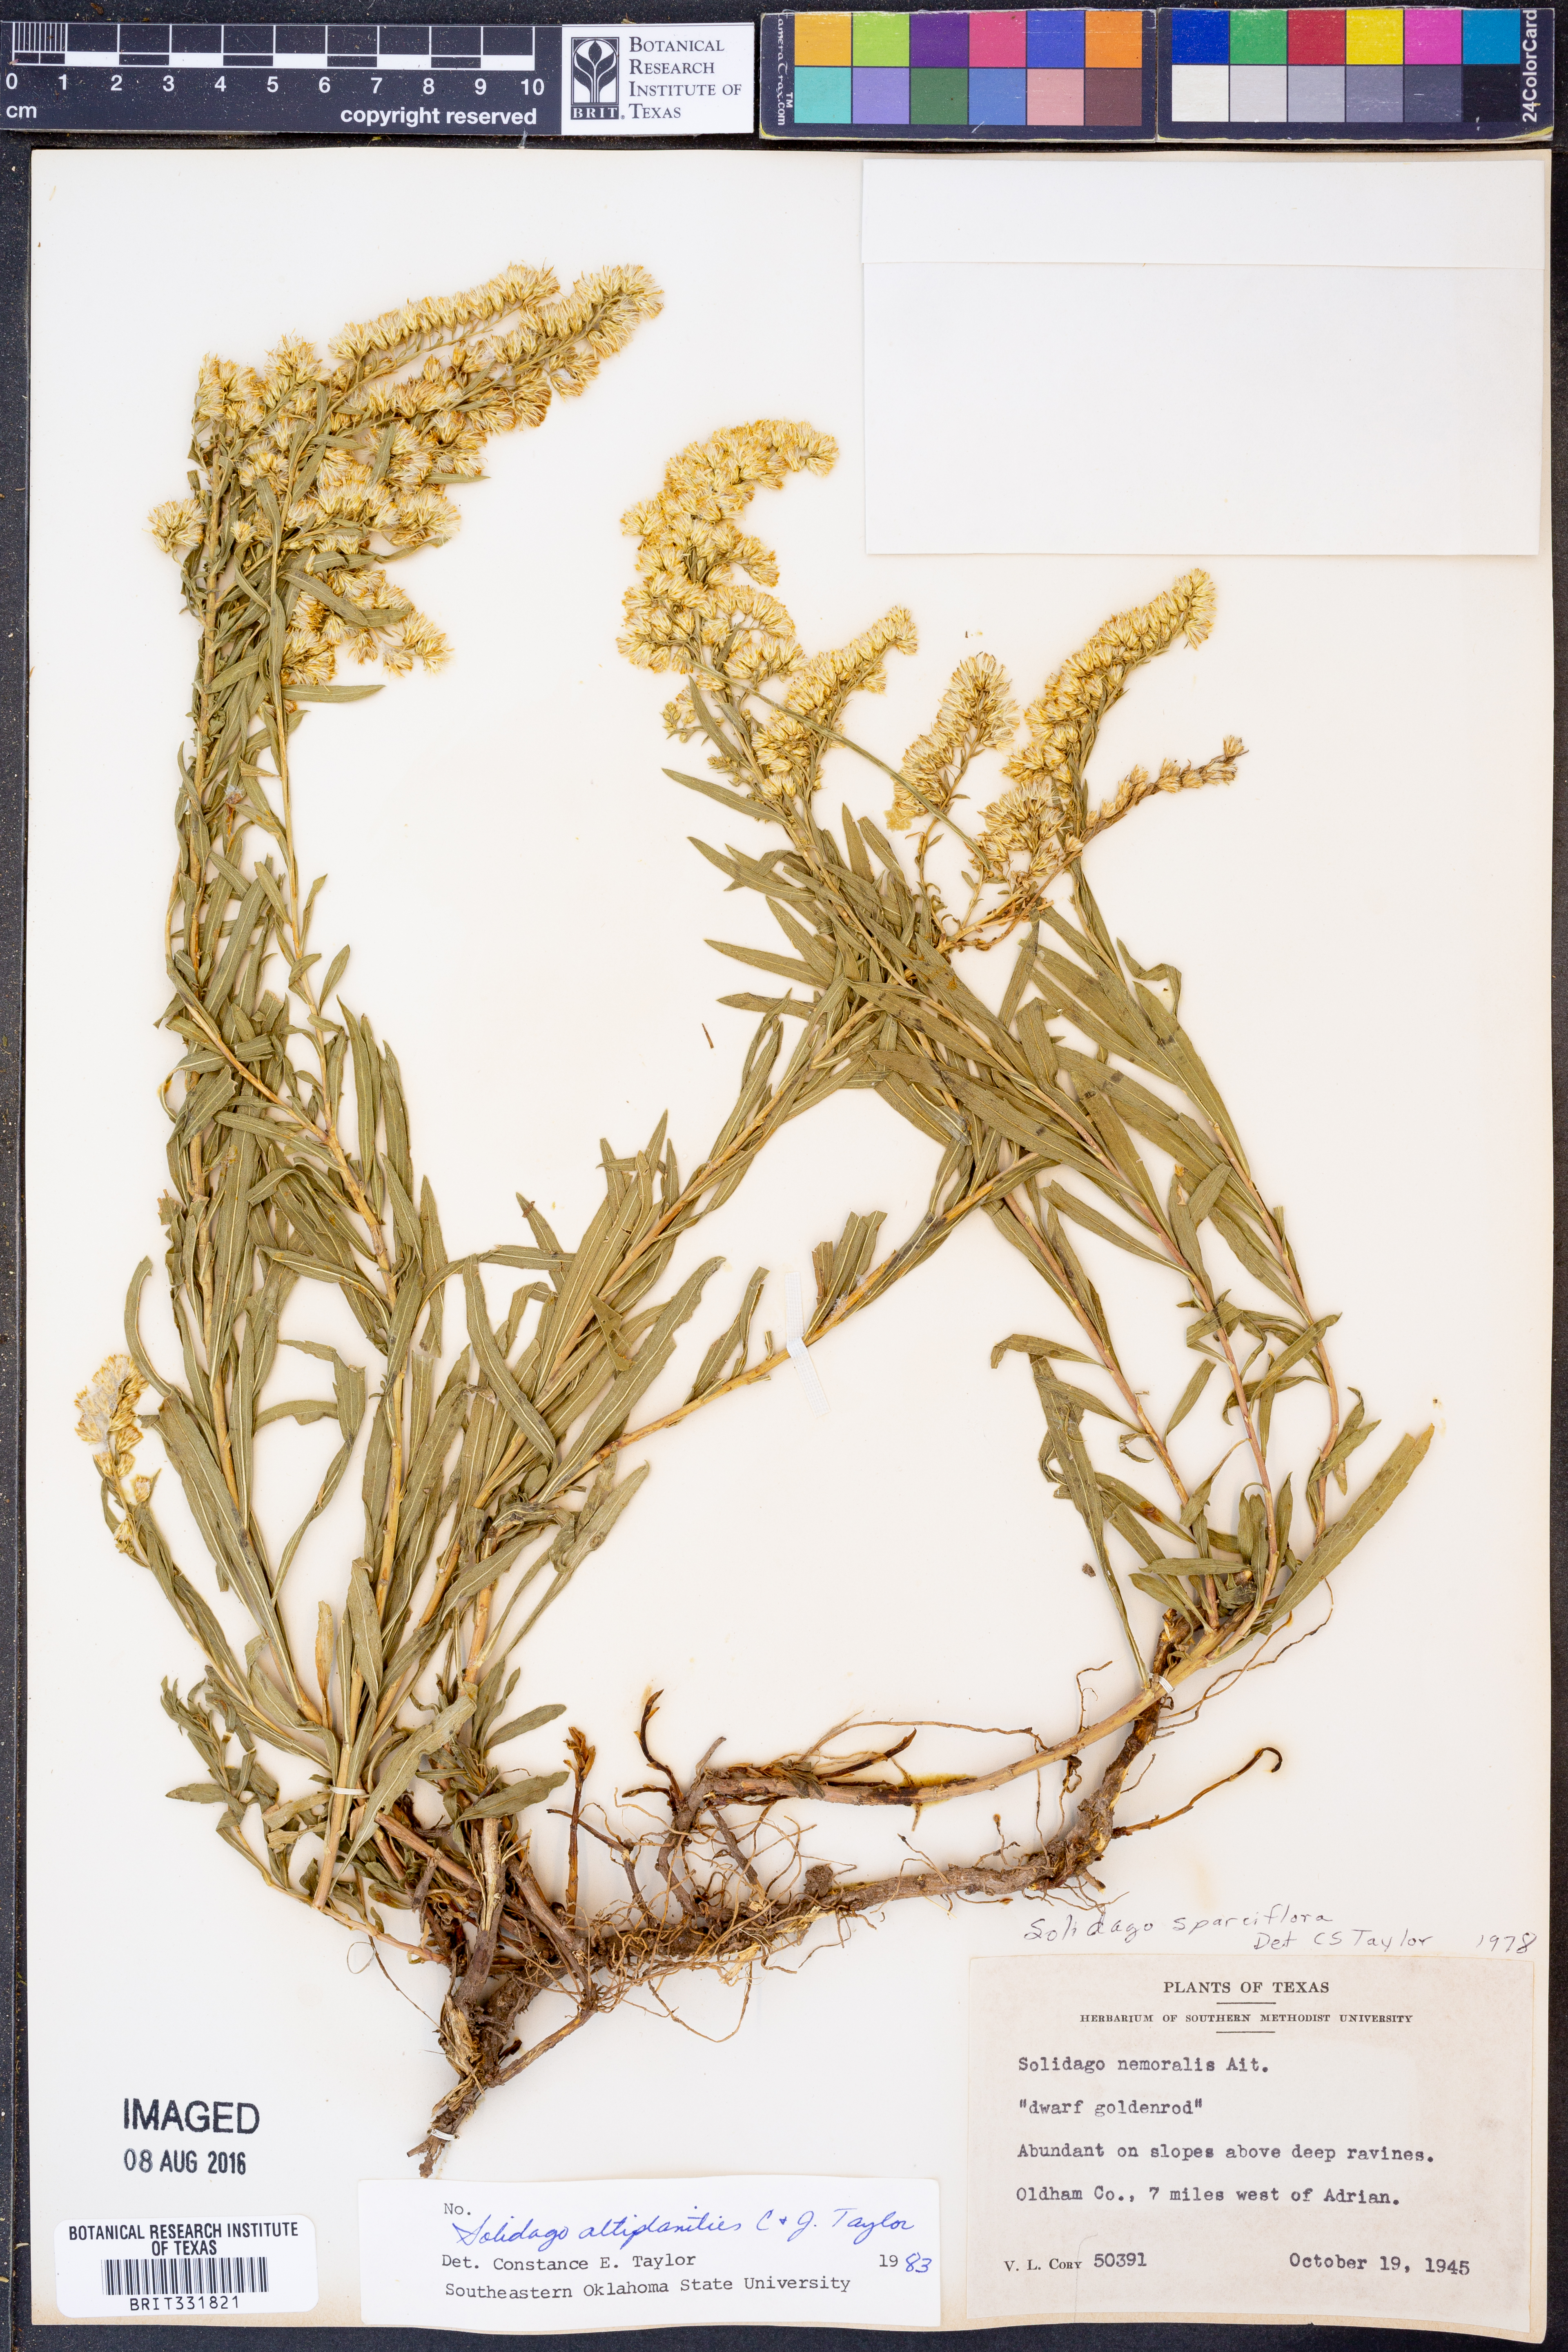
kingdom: Plantae
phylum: Tracheophyta
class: Magnoliopsida
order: Asterales
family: Asteraceae
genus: Solidago
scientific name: Solidago altiplanities
